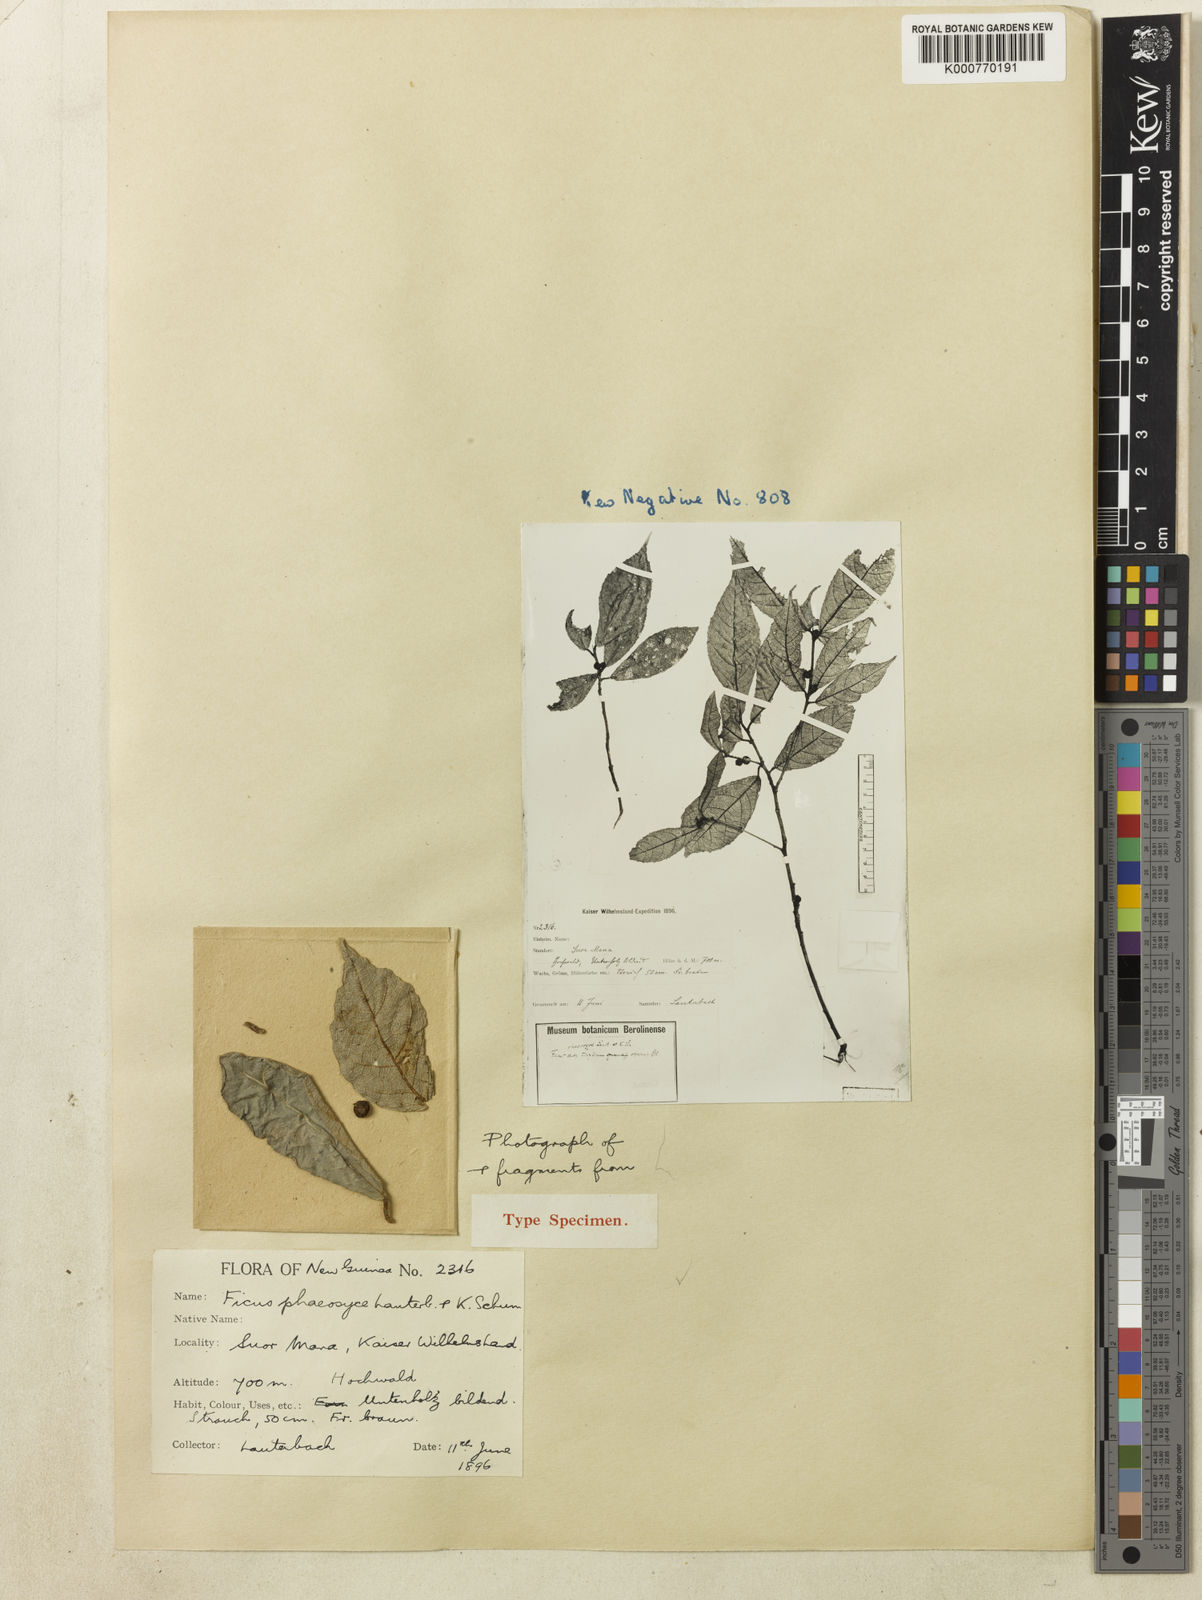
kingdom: Plantae
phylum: Tracheophyta
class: Magnoliopsida
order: Rosales
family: Moraceae
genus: Ficus
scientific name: Ficus phaeosyce
